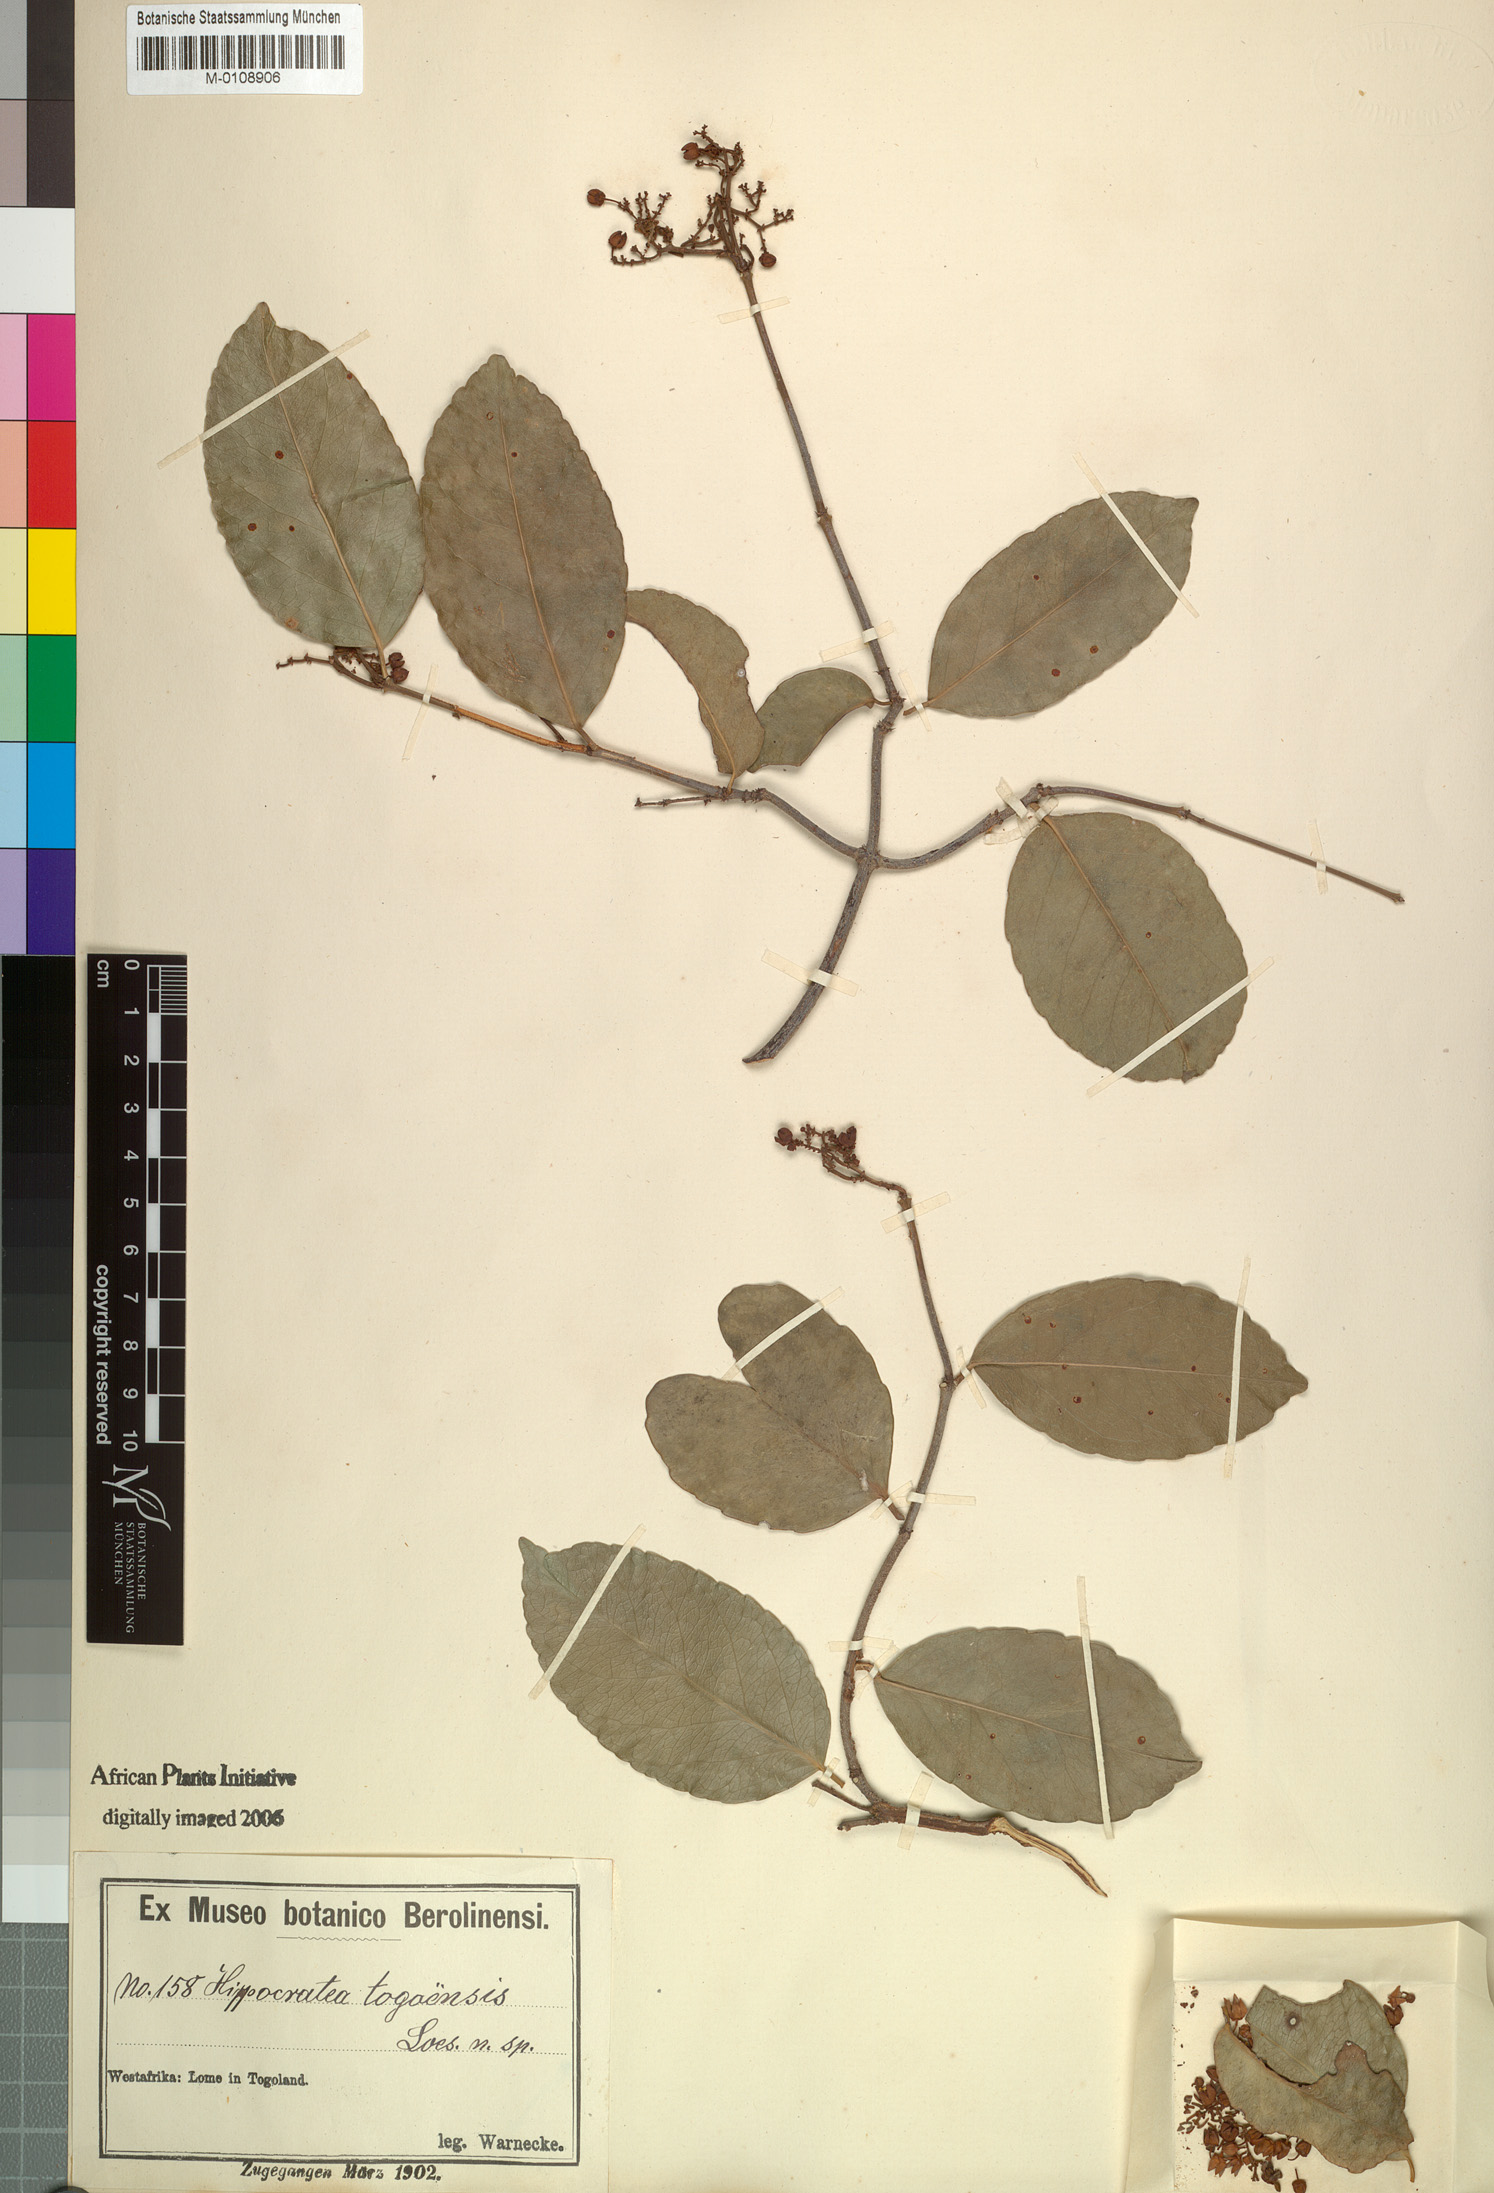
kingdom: Plantae
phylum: Tracheophyta
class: Magnoliopsida
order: Celastrales
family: Celastraceae
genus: Loeseneriella
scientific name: Loeseneriella africana
